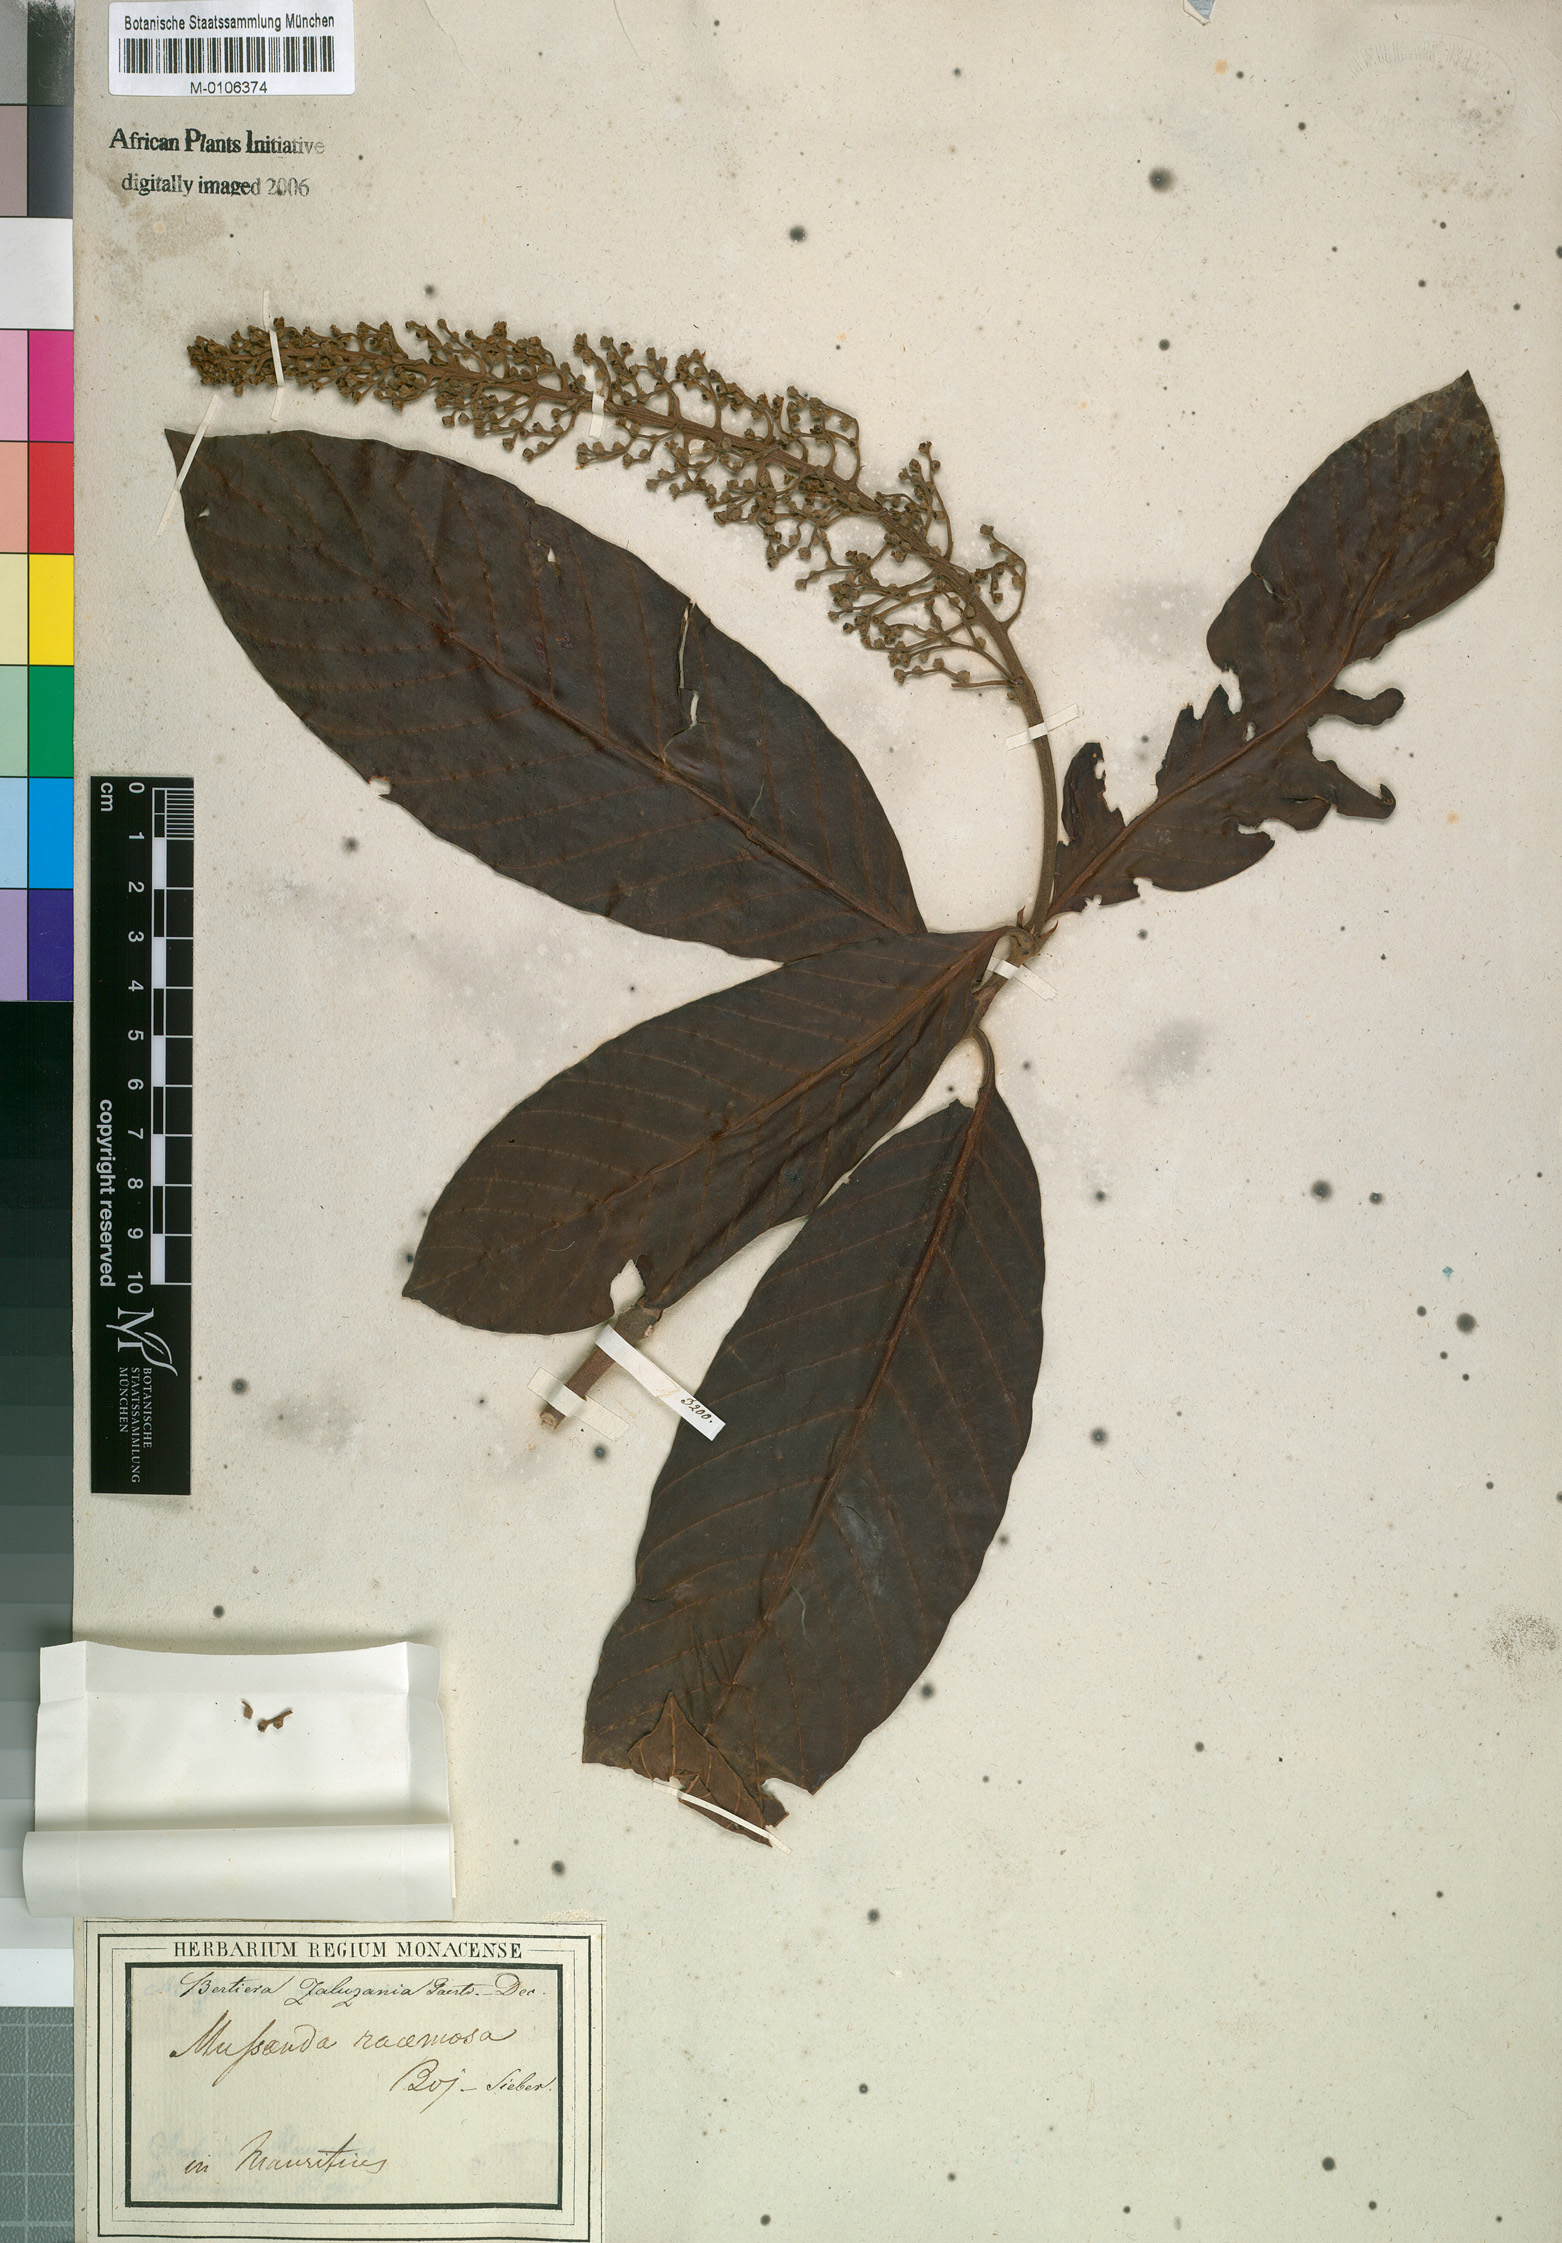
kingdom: Plantae
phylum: Tracheophyta
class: Magnoliopsida
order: Gentianales
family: Rubiaceae
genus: Bertiera
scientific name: Bertiera zaluzania
